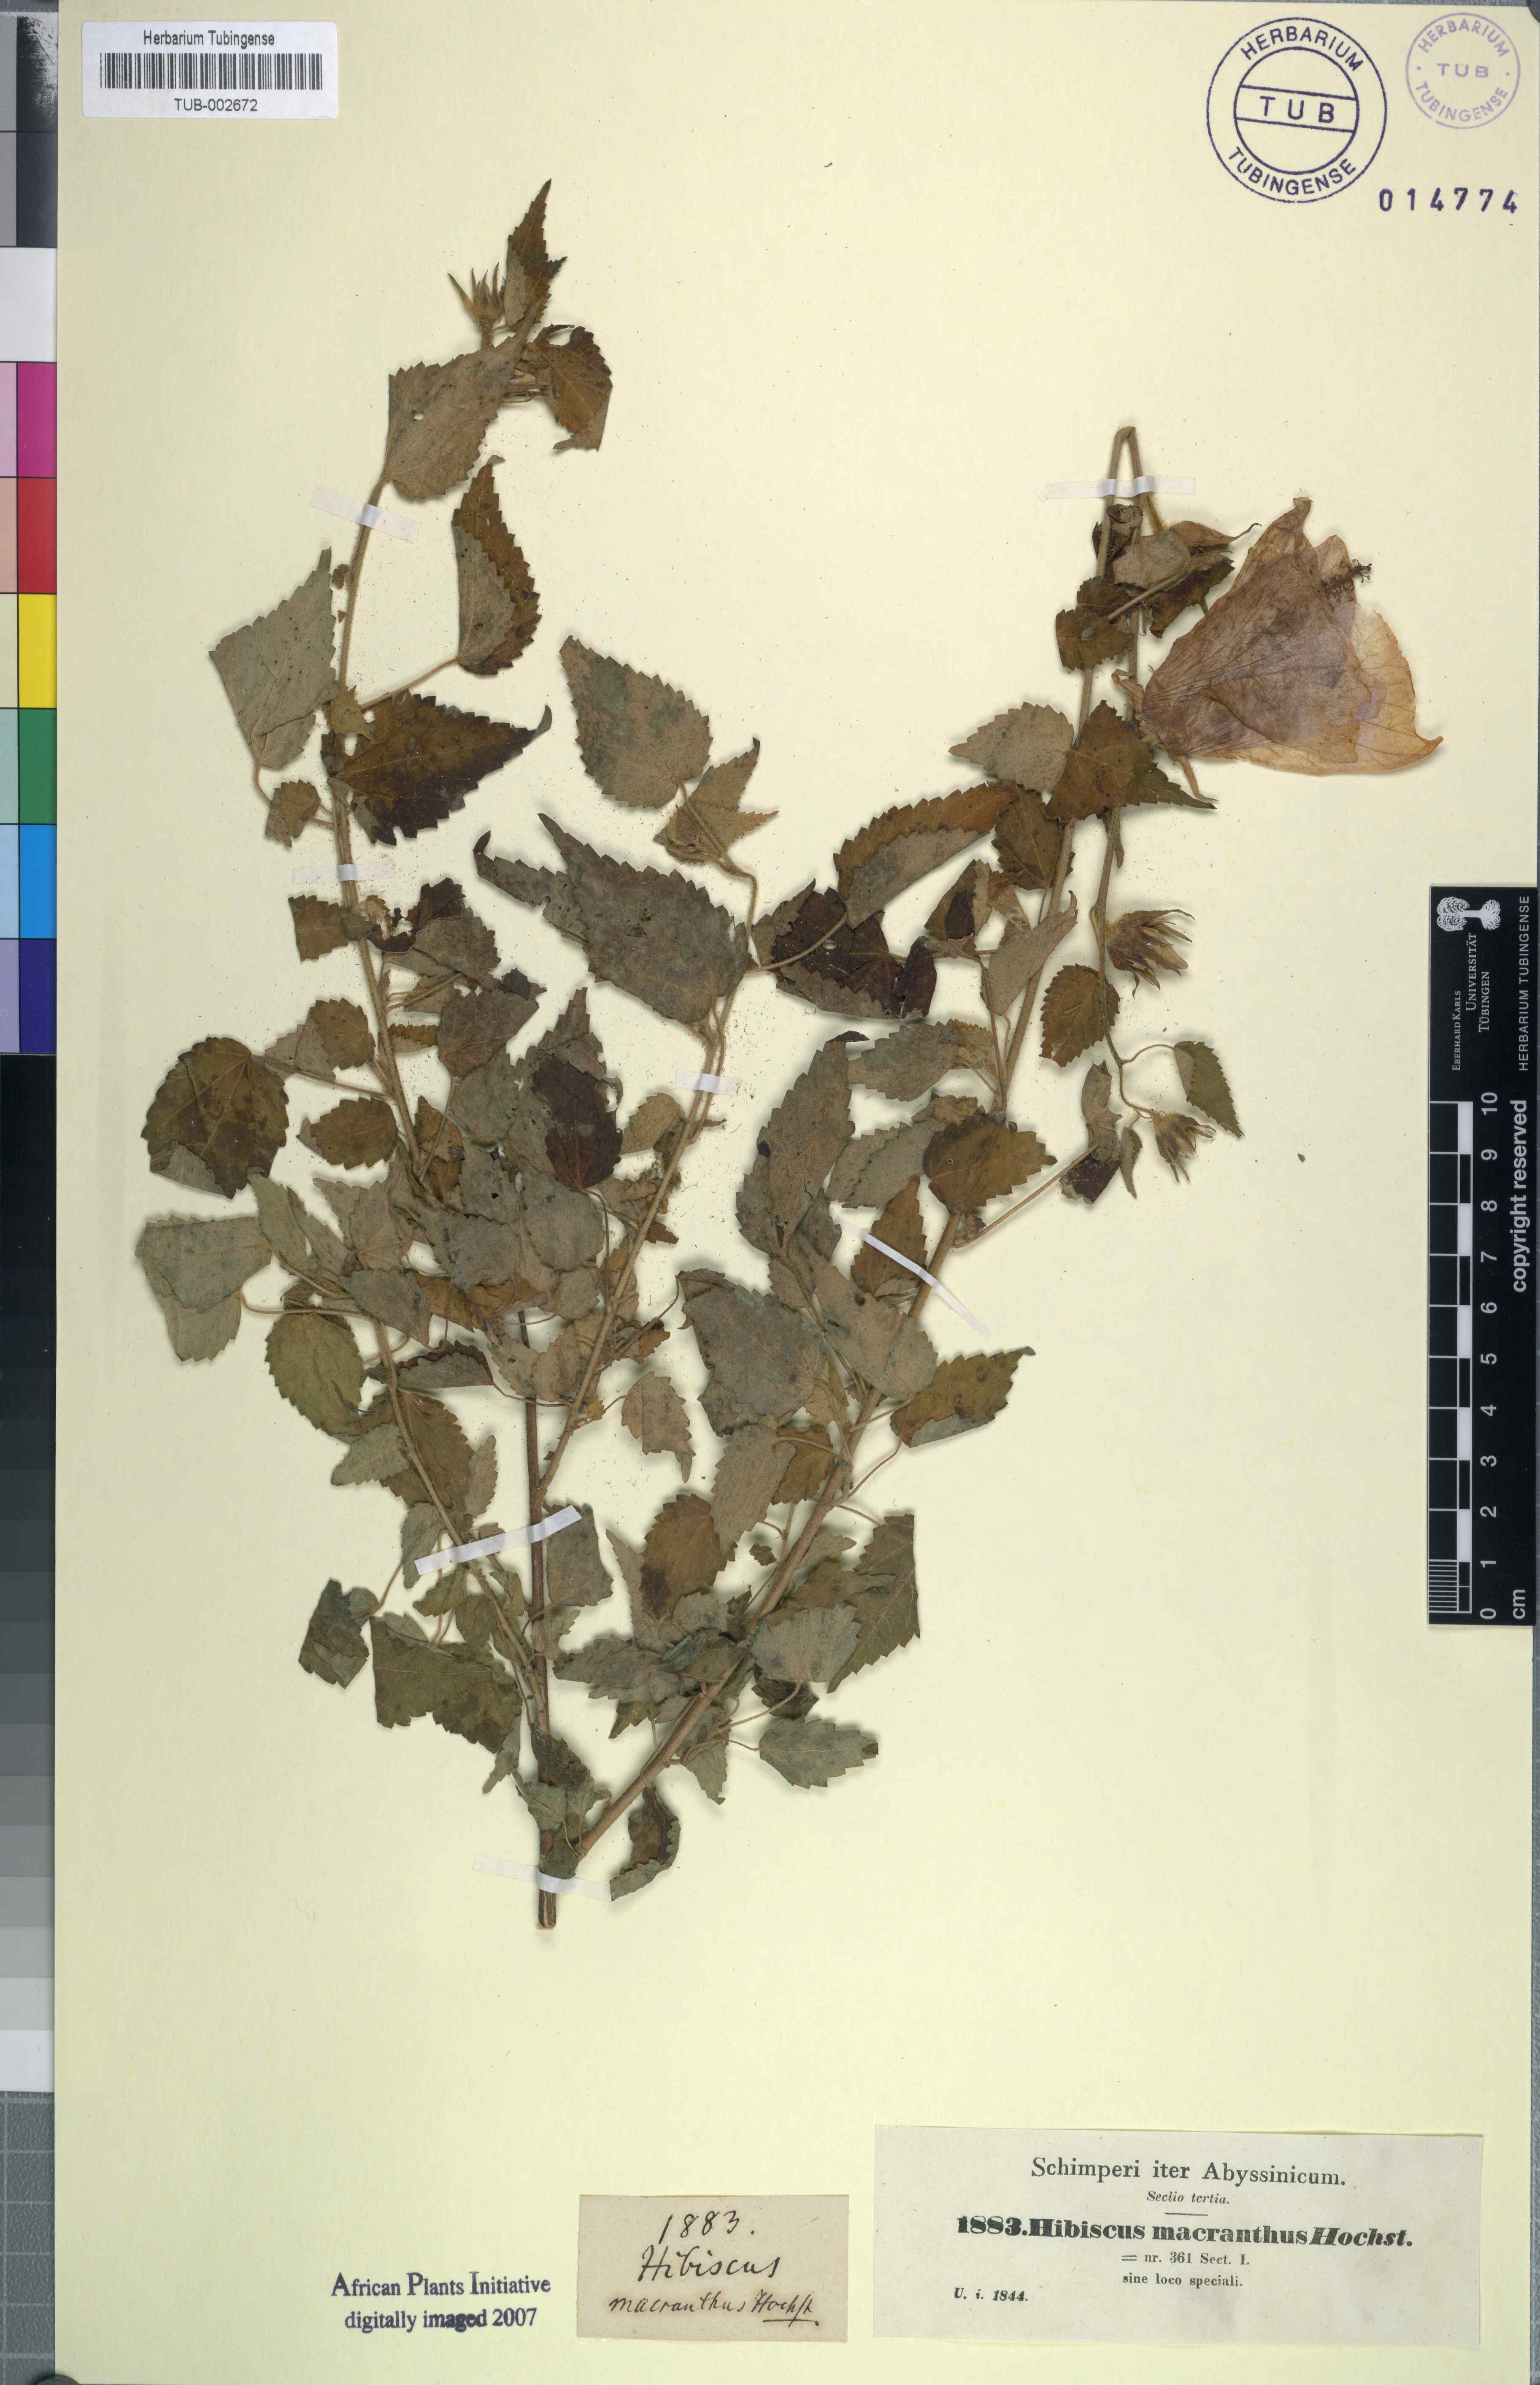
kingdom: Plantae
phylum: Tracheophyta
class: Magnoliopsida
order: Malvales
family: Malvaceae
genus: Hibiscus
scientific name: Hibiscus lunariifolius
